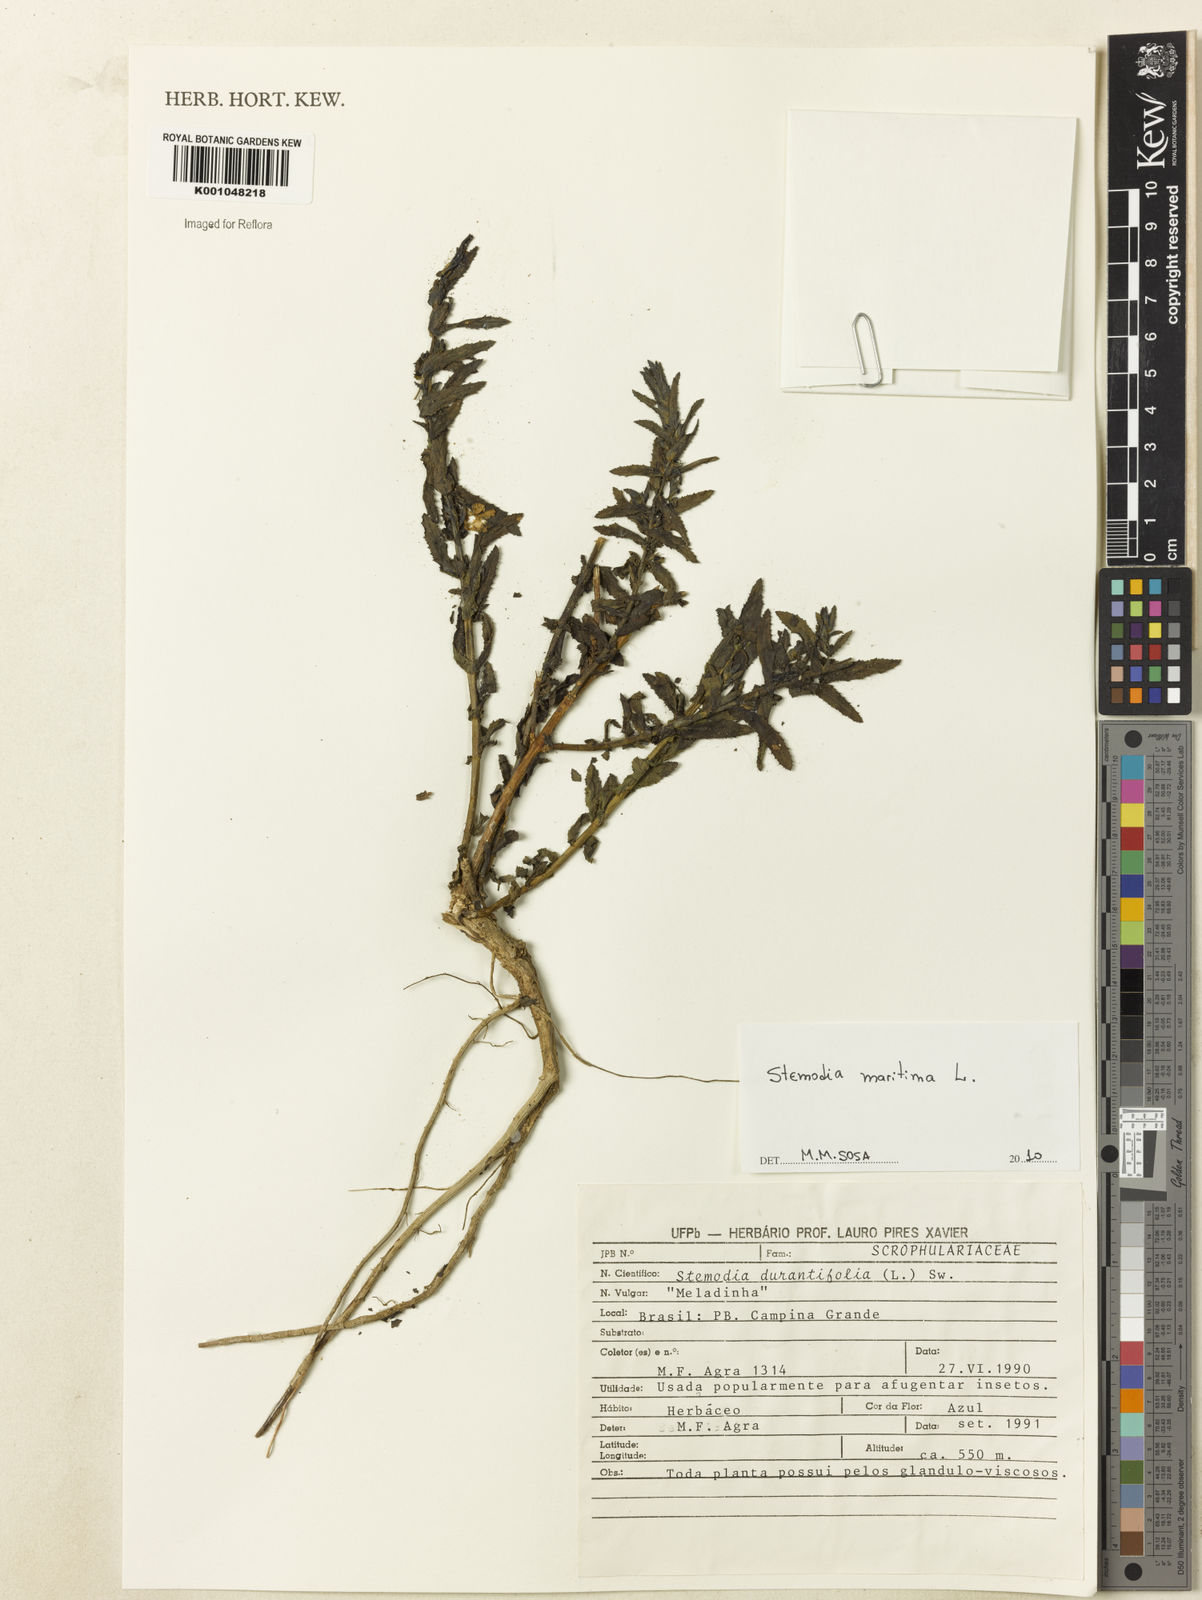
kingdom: Plantae
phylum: Tracheophyta
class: Magnoliopsida
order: Lamiales
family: Plantaginaceae
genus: Stemodia
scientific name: Stemodia maritima
